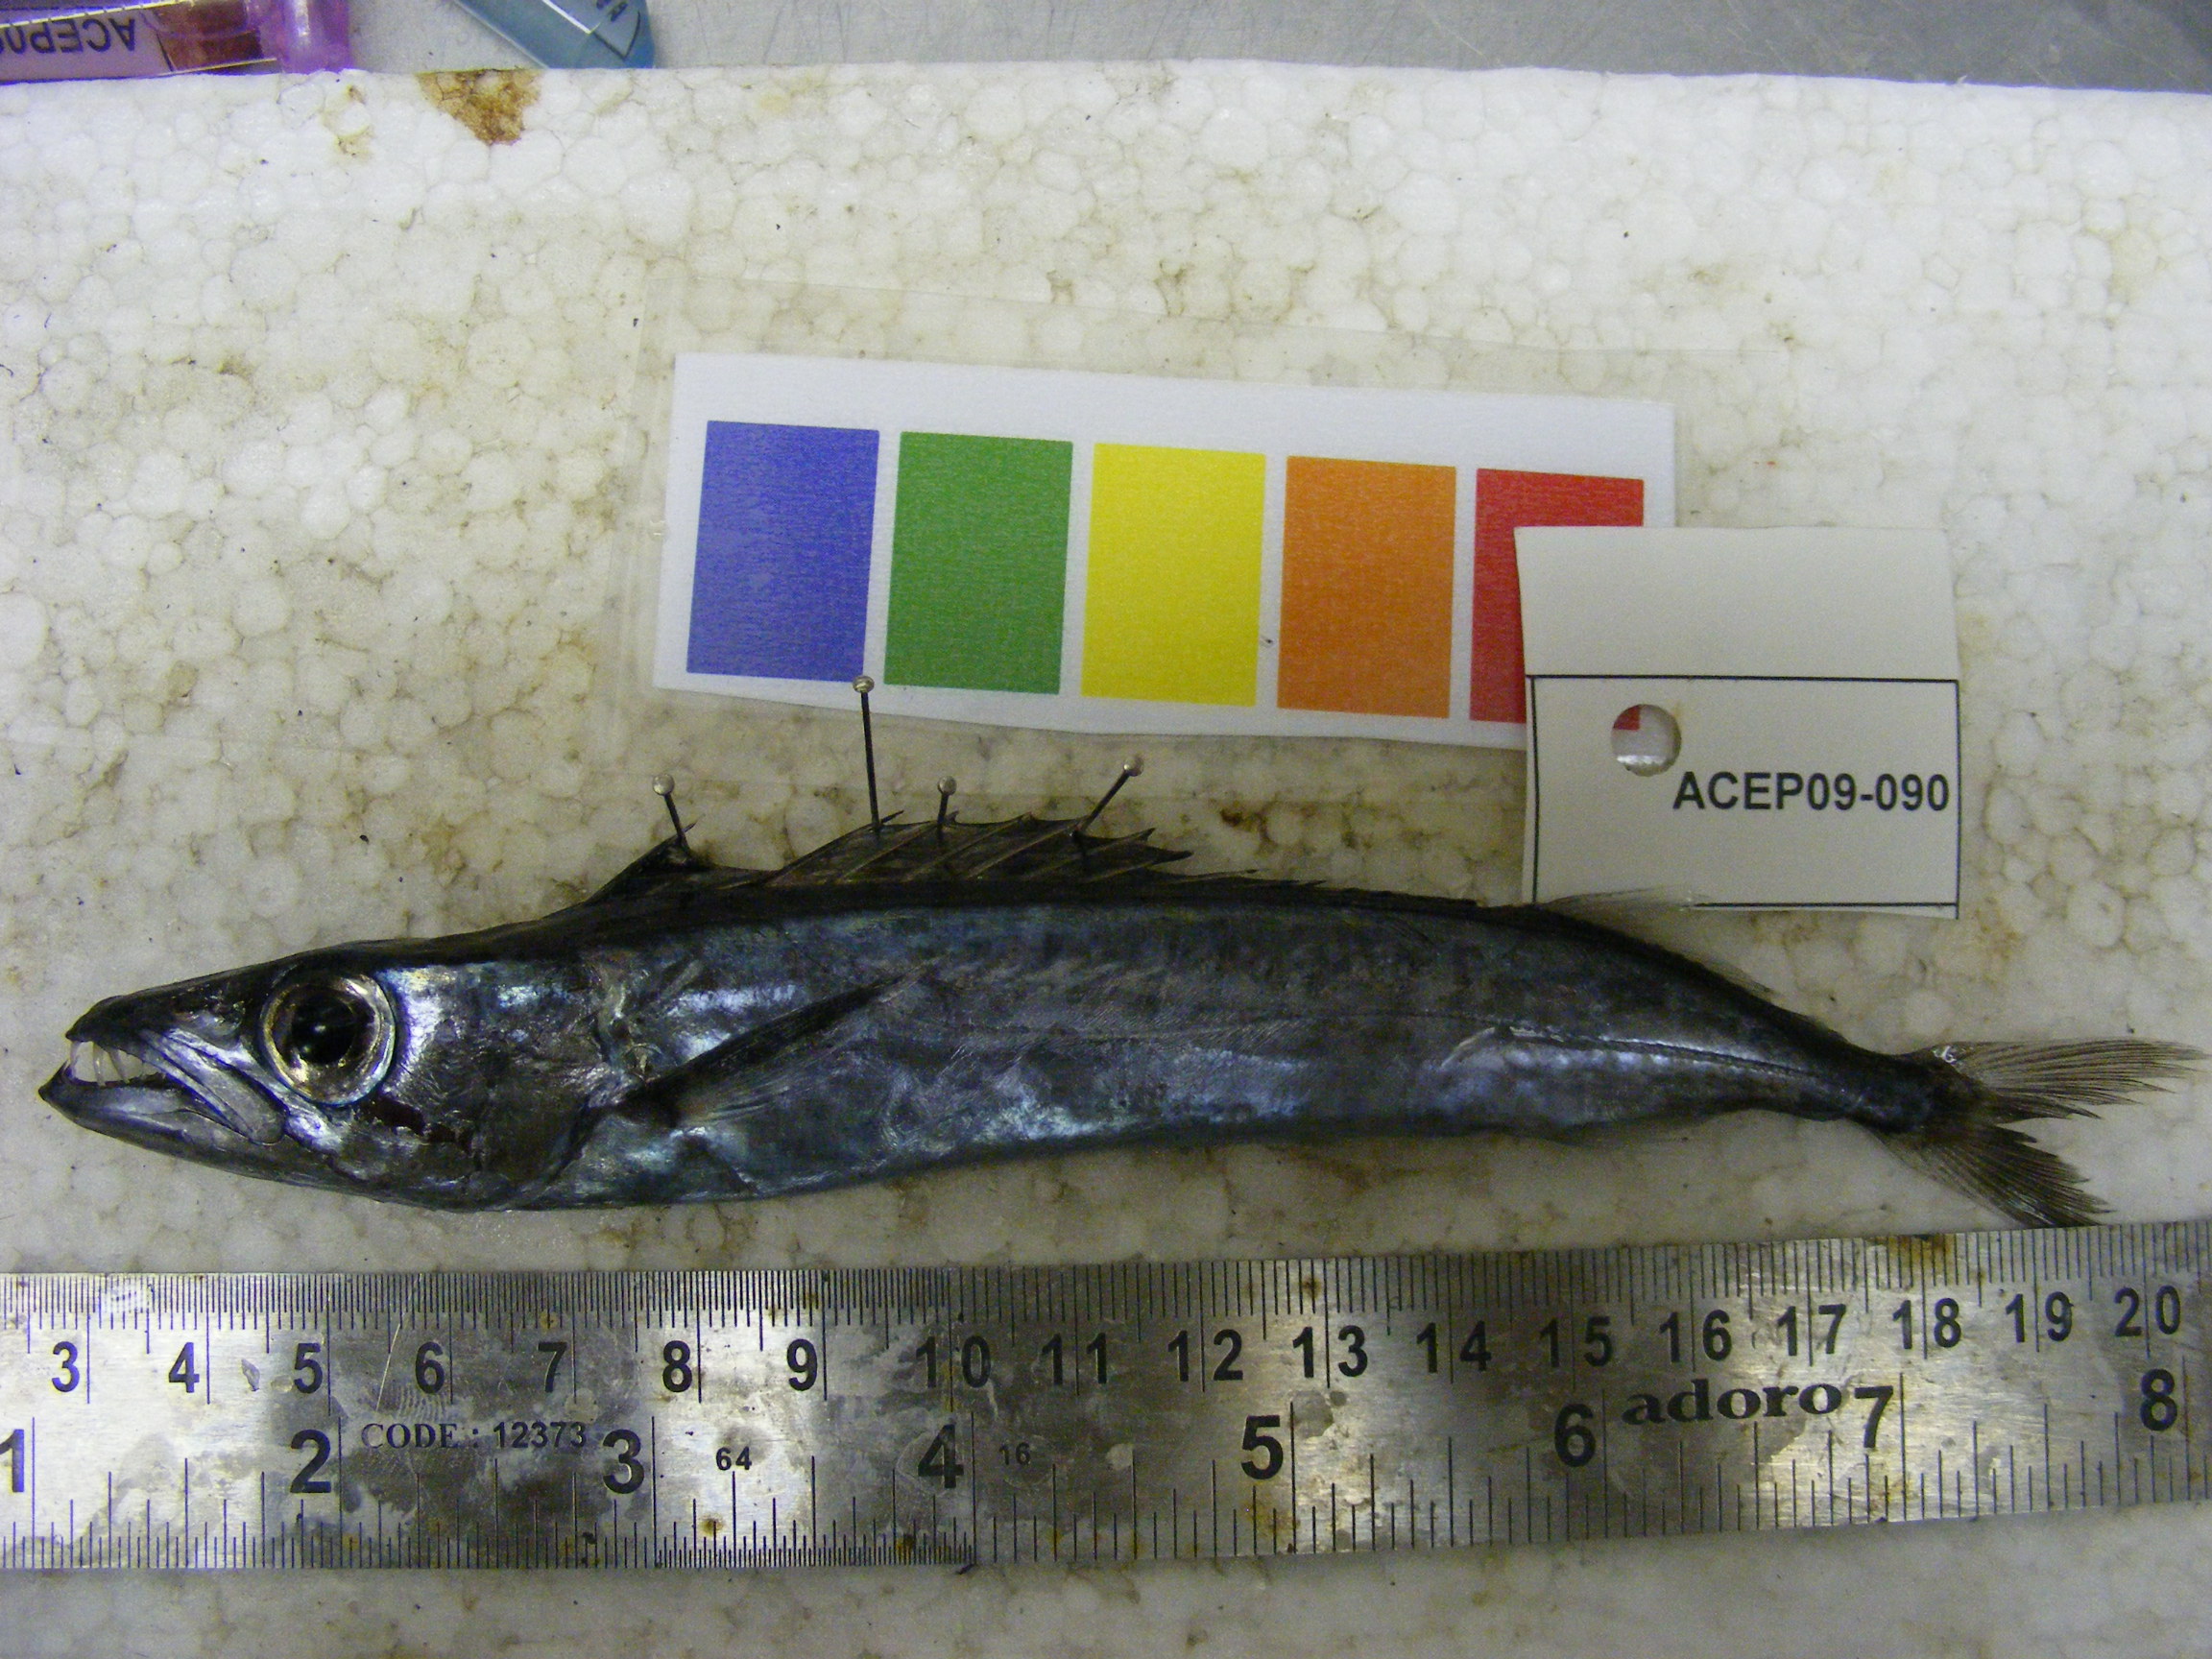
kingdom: Animalia
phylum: Chordata
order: Perciformes
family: Gempylidae
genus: Rexea
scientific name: Rexea prometheoides
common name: Royal escolar
